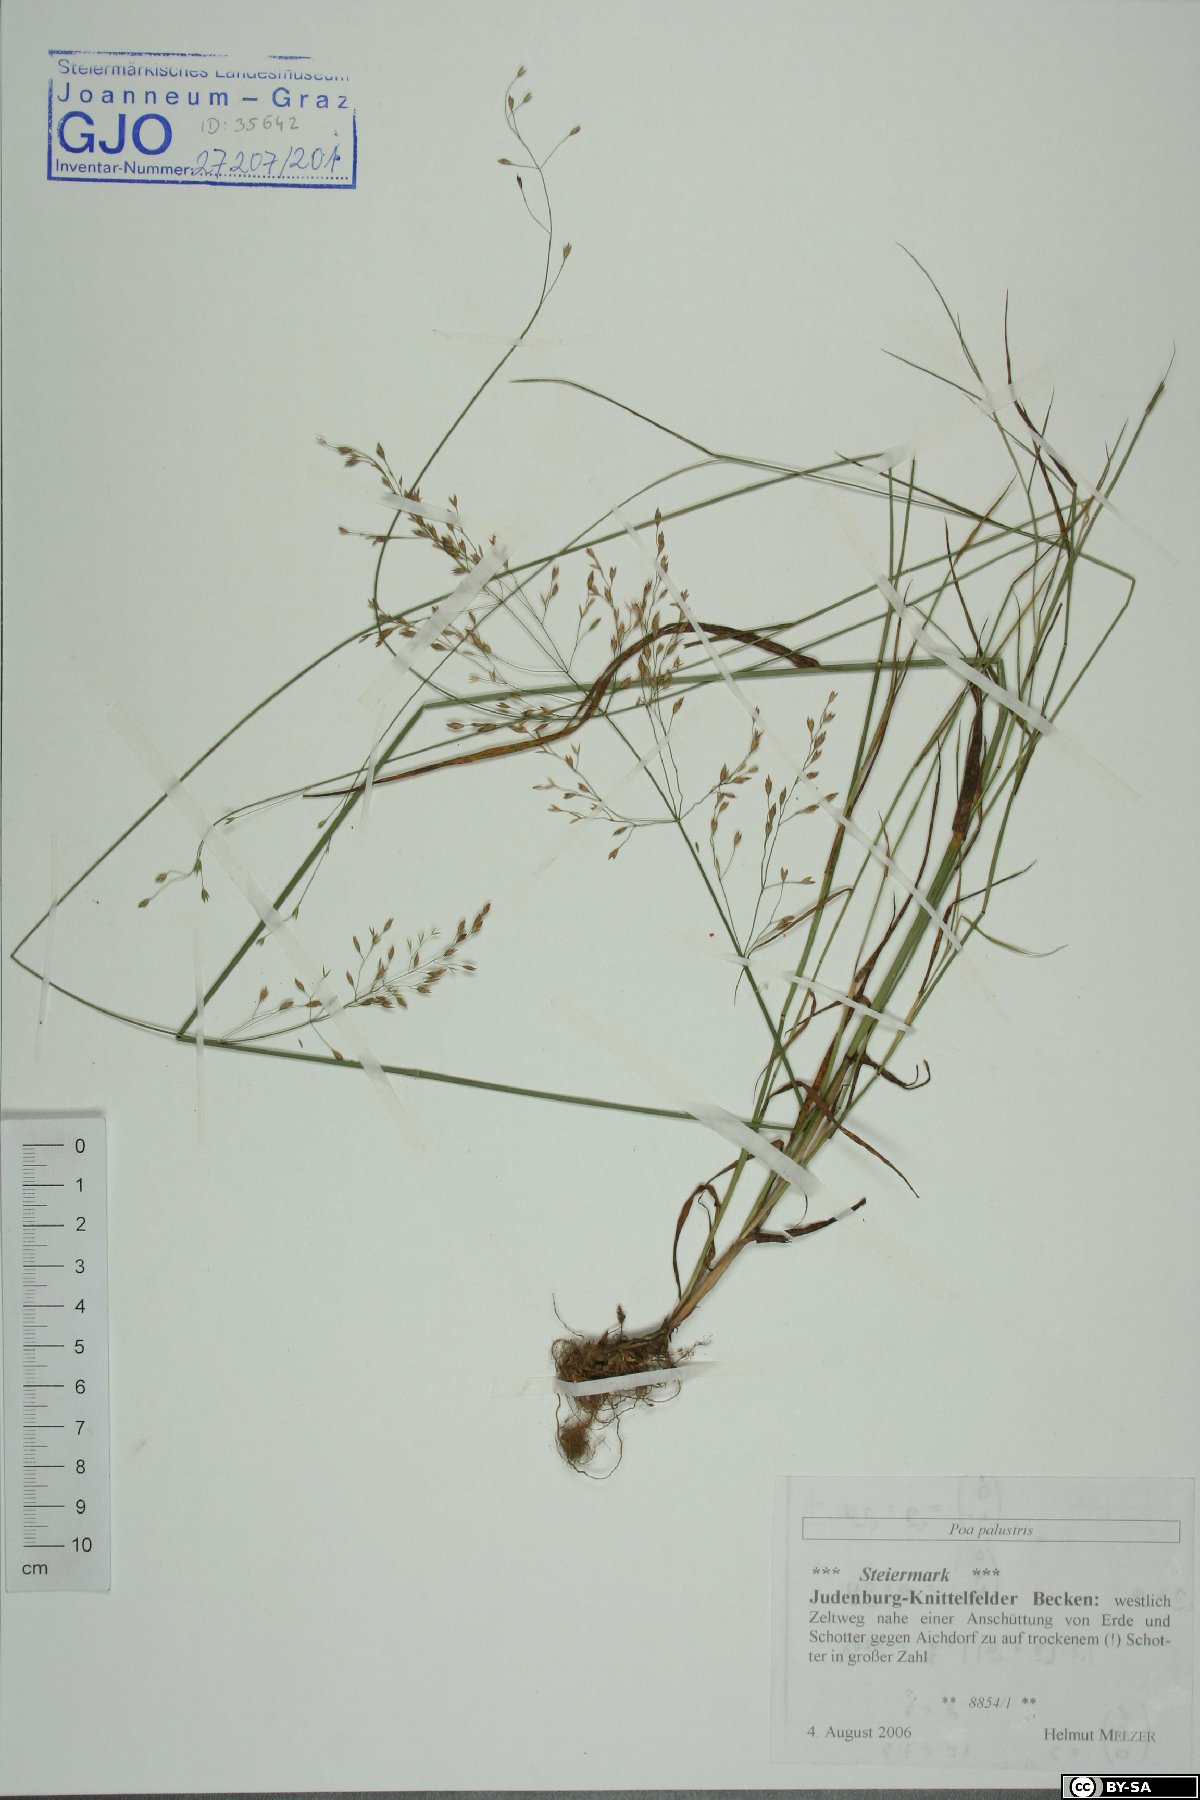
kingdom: Plantae
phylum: Tracheophyta
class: Liliopsida
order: Poales
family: Poaceae
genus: Poa
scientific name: Poa palustris
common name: Swamp meadow-grass
